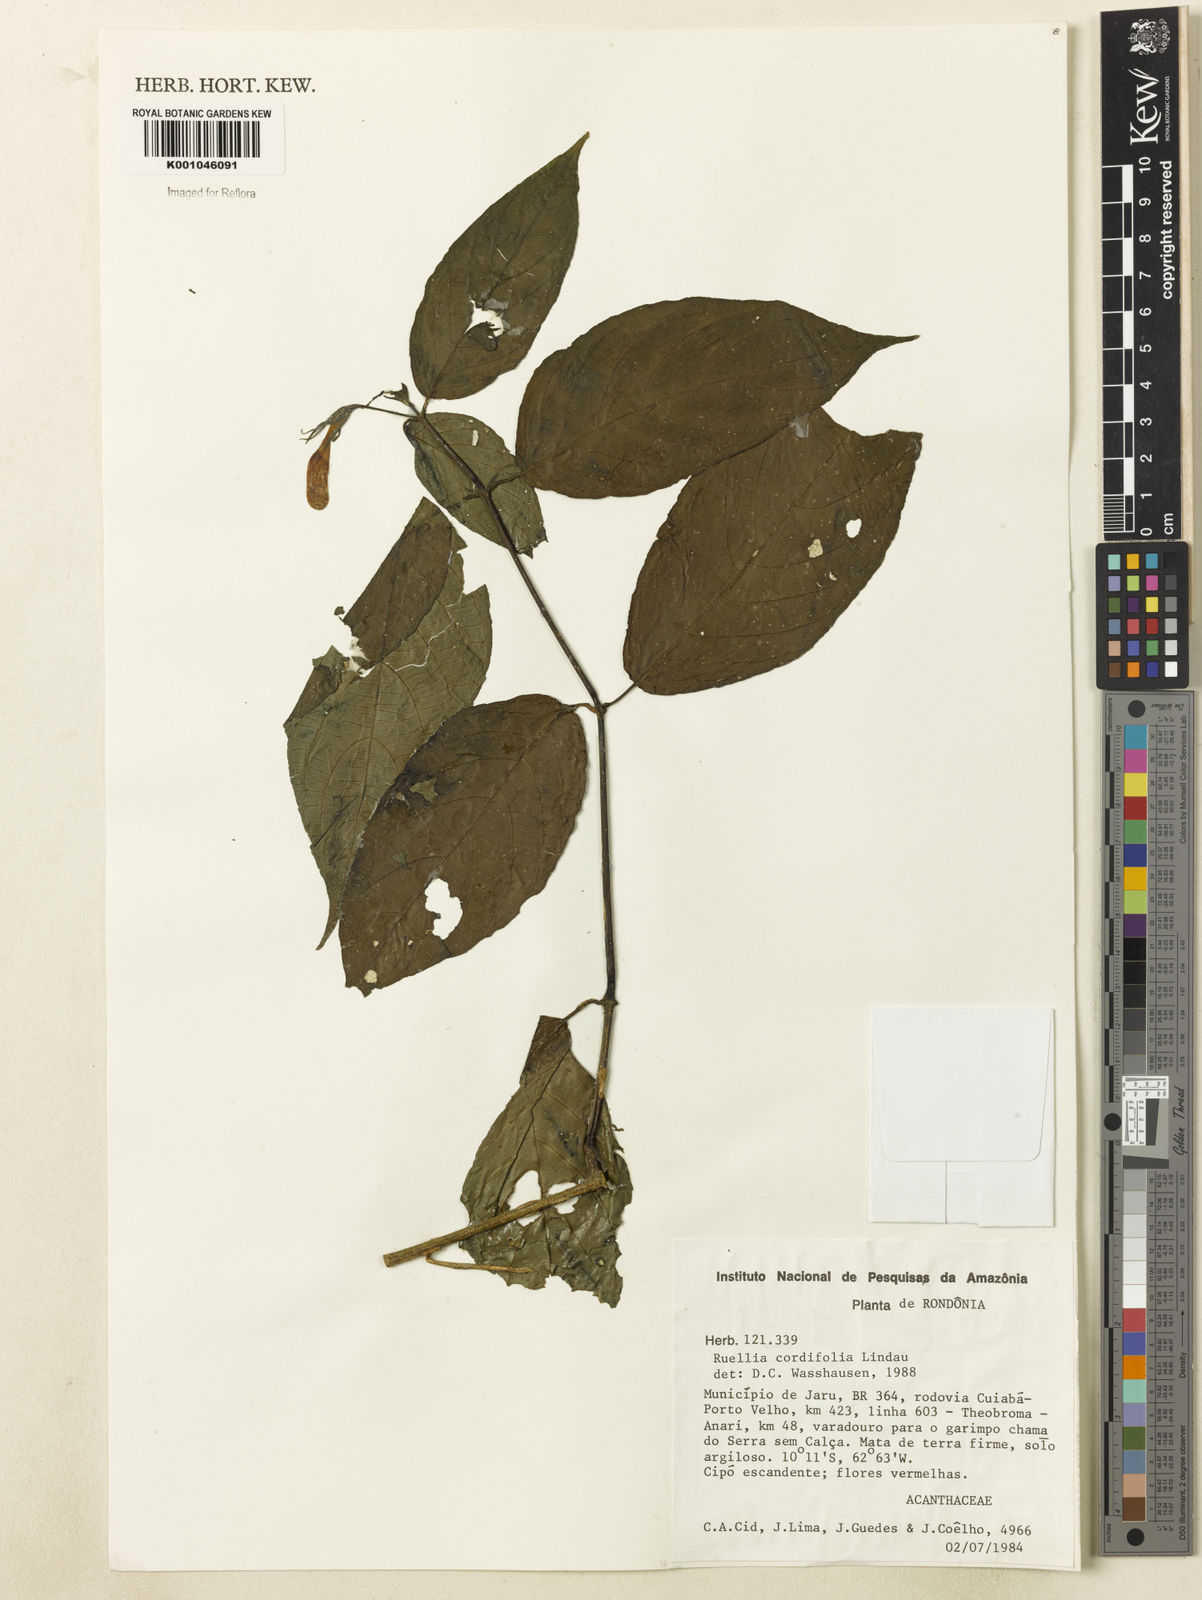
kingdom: Plantae
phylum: Tracheophyta
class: Magnoliopsida
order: Lamiales
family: Acanthaceae
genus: Ruellia
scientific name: Ruellia inflata
